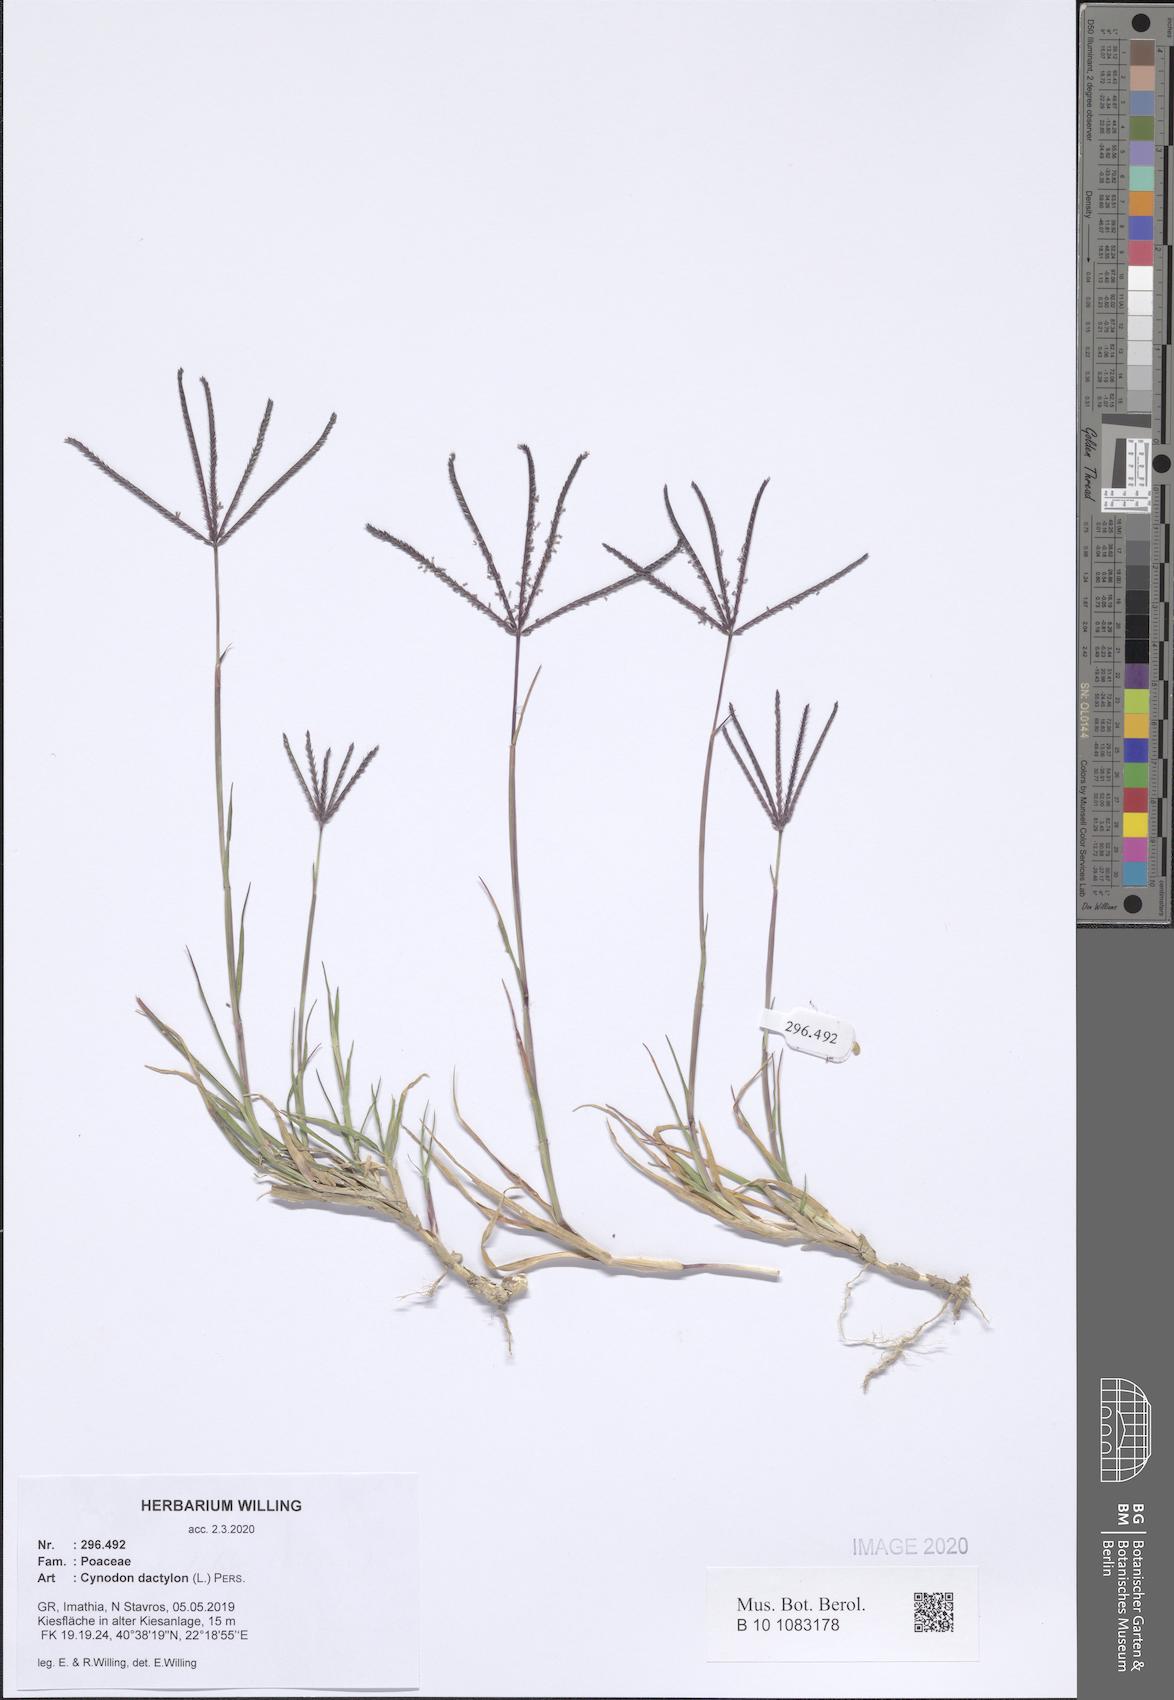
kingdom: Plantae
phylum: Tracheophyta
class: Liliopsida
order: Poales
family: Poaceae
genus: Cynodon
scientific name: Cynodon dactylon
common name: Bermuda grass
